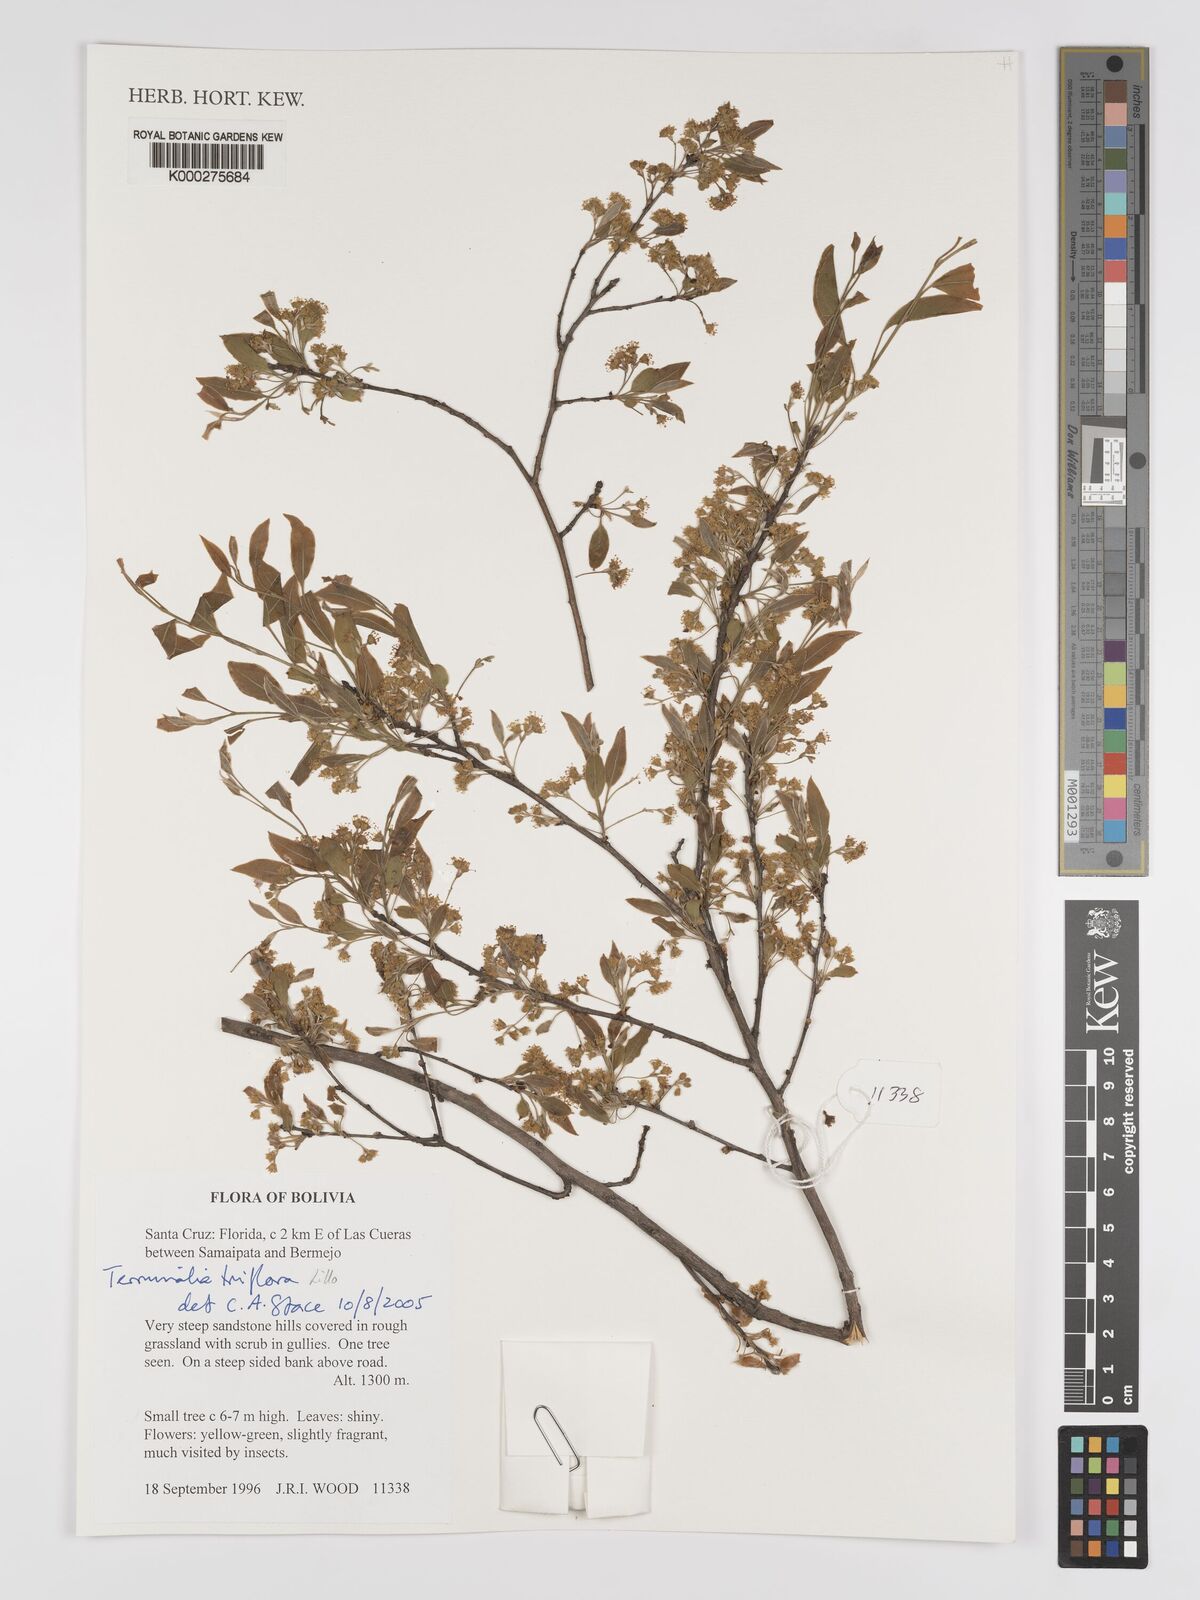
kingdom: Plantae
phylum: Tracheophyta
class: Magnoliopsida
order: Myrtales
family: Combretaceae
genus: Terminalia
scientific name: Terminalia triflora
